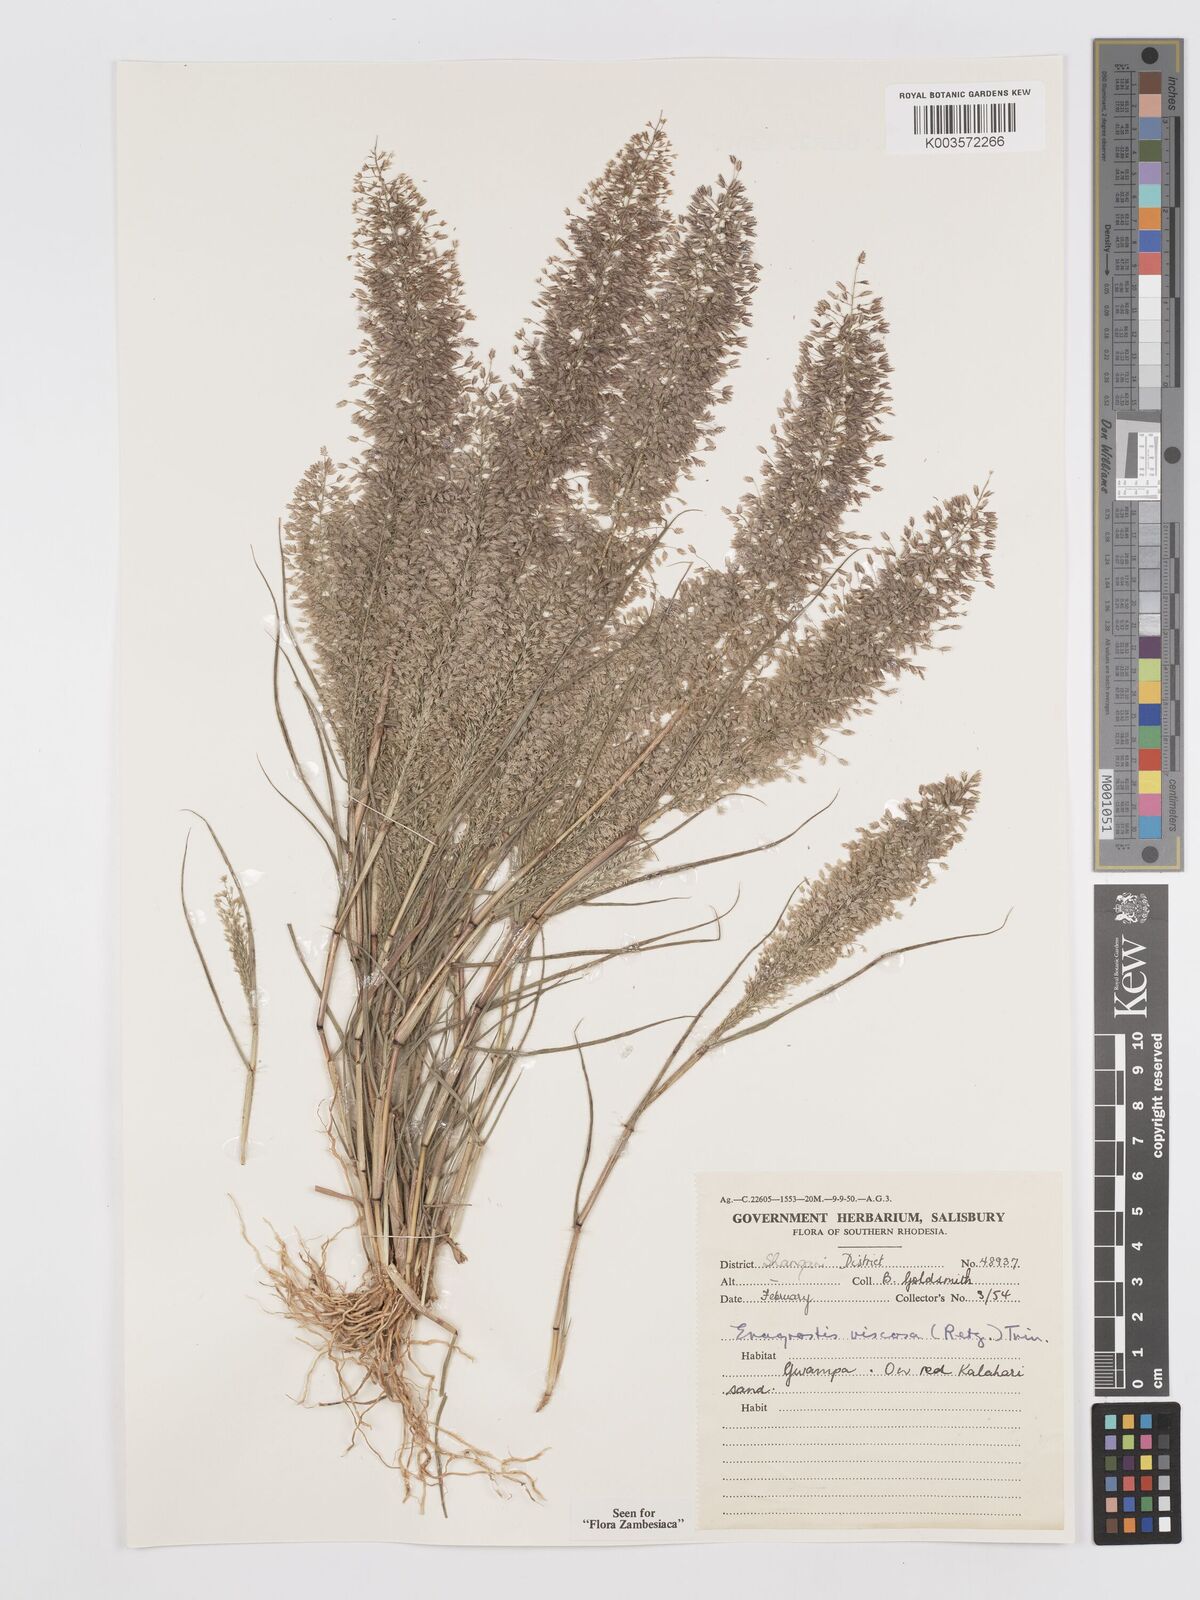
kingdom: Plantae
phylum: Tracheophyta
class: Liliopsida
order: Poales
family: Poaceae
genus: Eragrostis
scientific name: Eragrostis
